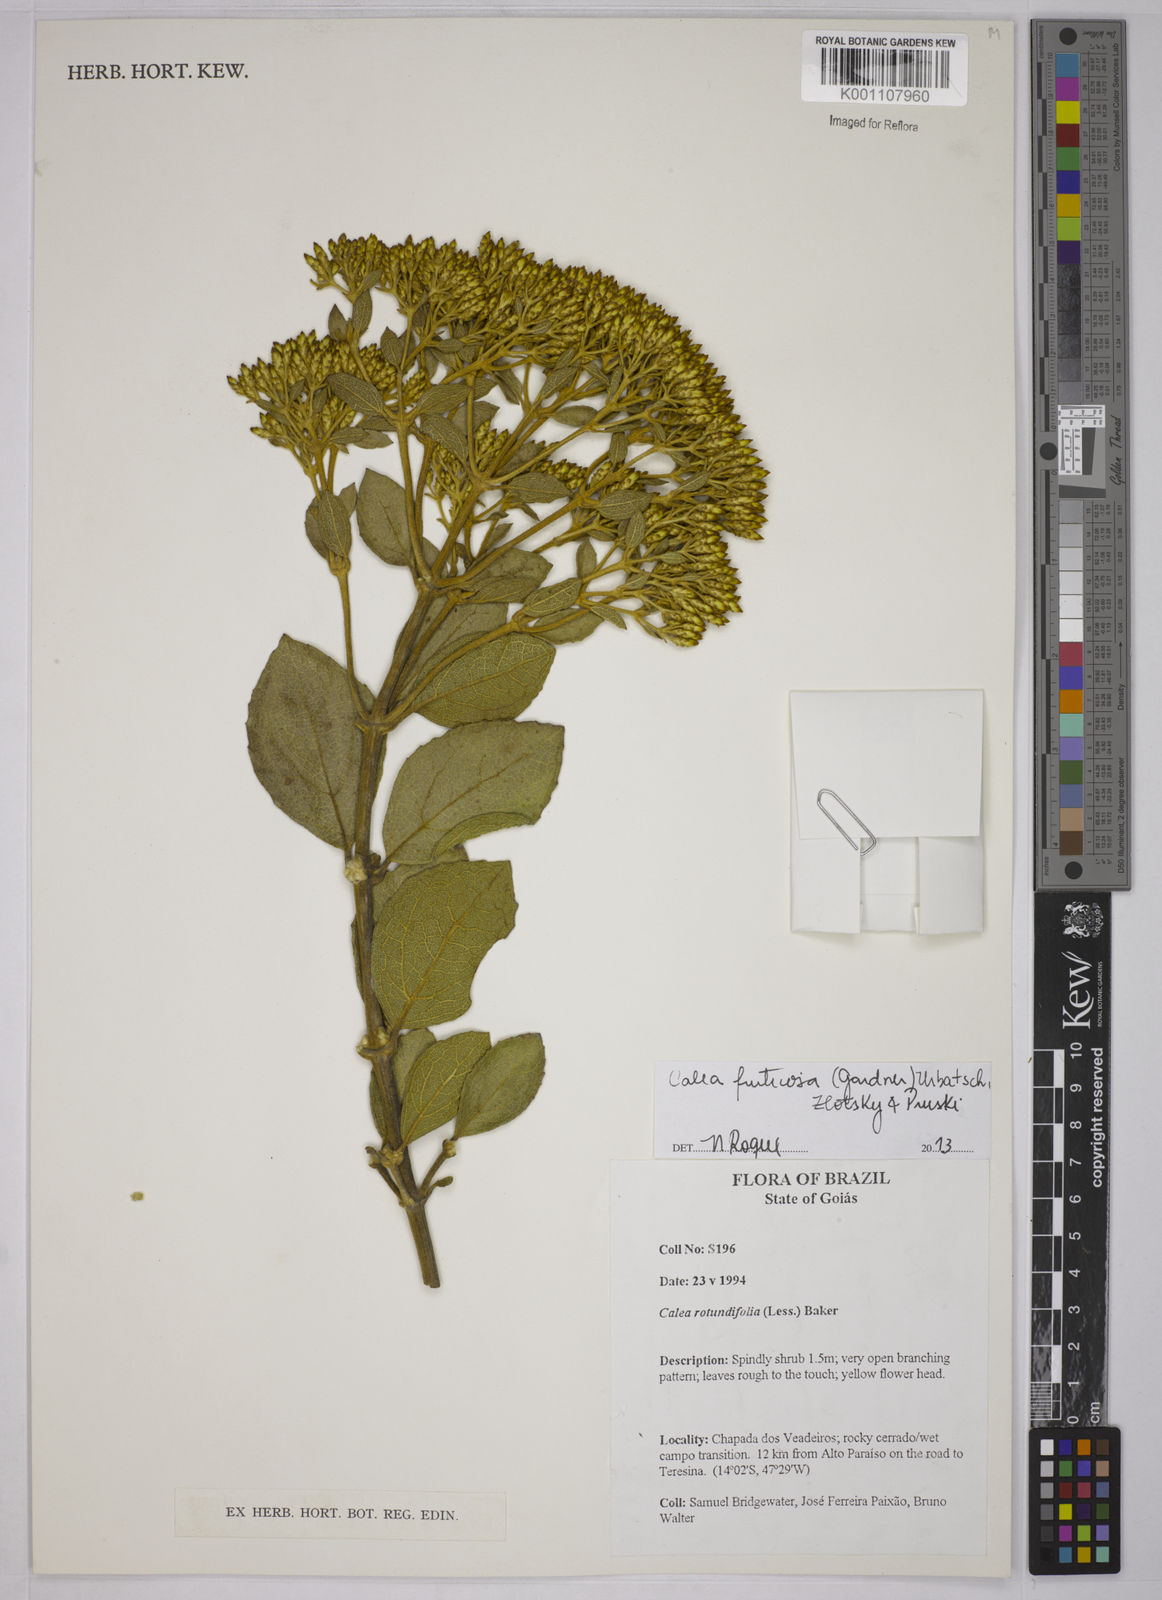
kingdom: Plantae
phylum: Tracheophyta
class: Magnoliopsida
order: Asterales
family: Asteraceae
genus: Calea
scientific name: Calea fruticosa
